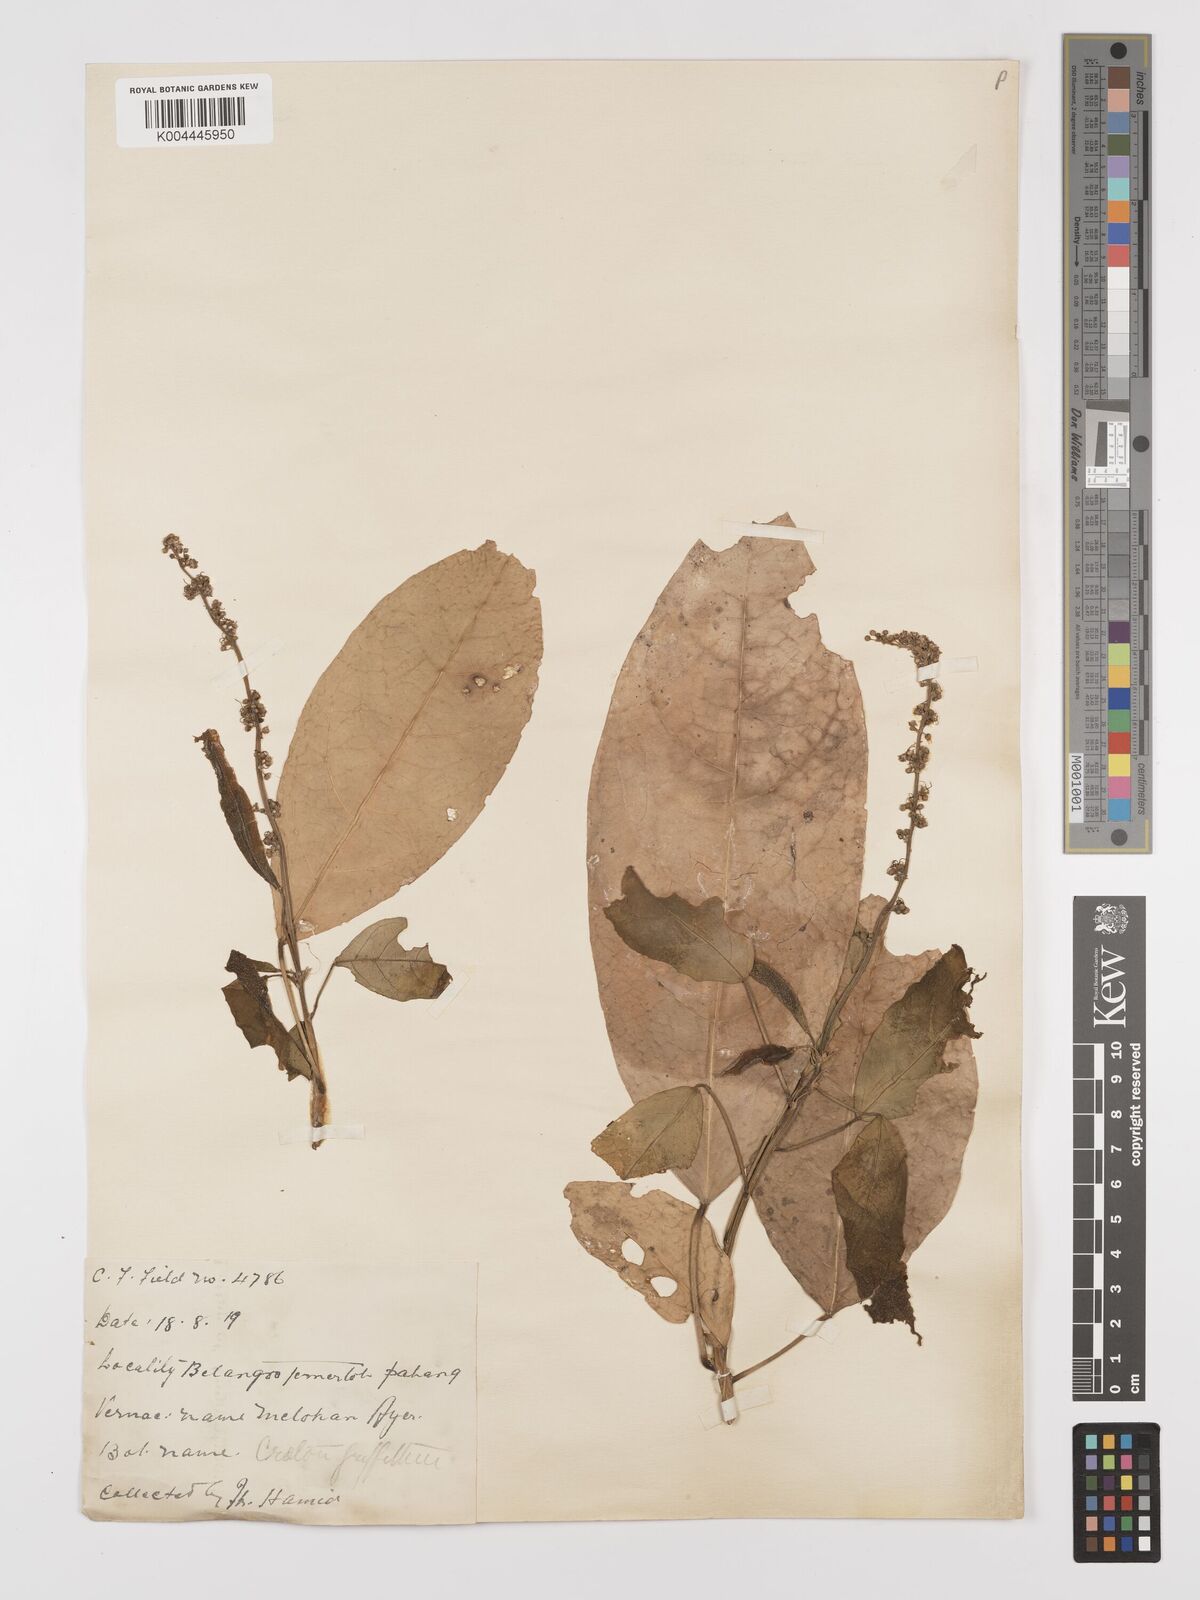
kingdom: Plantae
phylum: Tracheophyta
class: Magnoliopsida
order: Malpighiales
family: Euphorbiaceae
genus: Croton
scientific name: Croton griffithii
